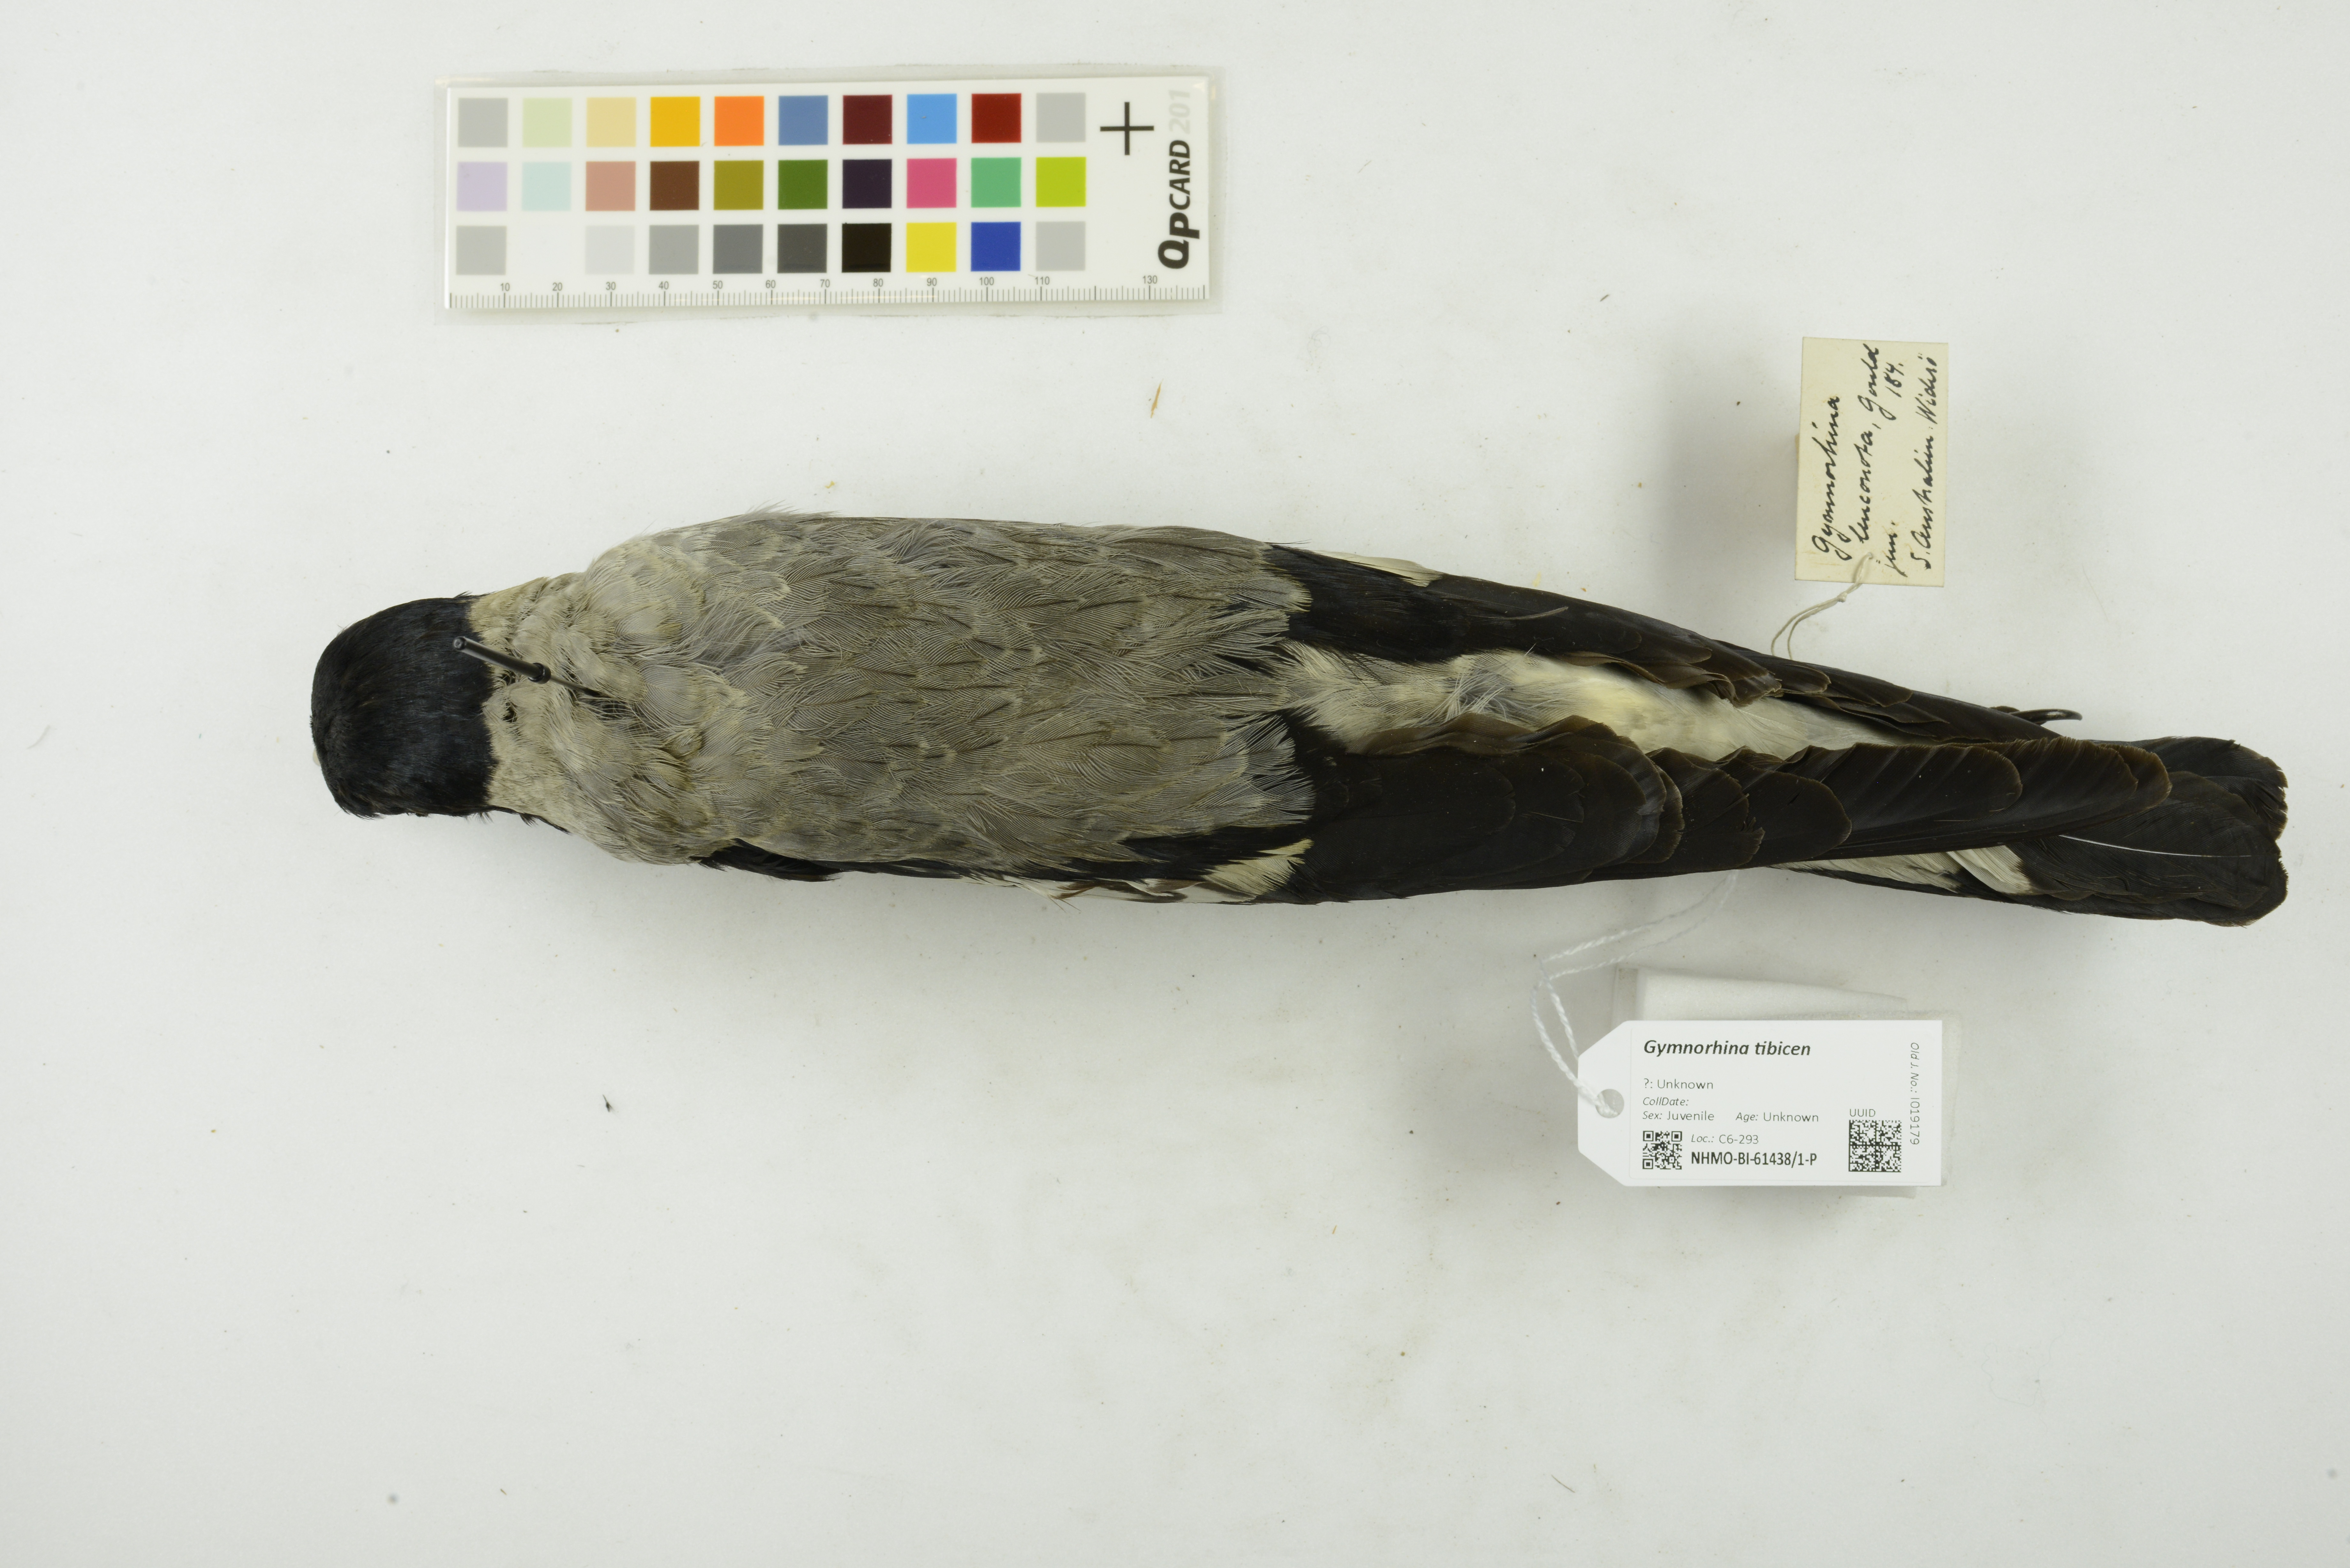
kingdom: Animalia
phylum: Chordata
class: Aves
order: Passeriformes
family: Cracticidae
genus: Gymnorhina
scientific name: Gymnorhina tibicen
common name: Australian magpie
